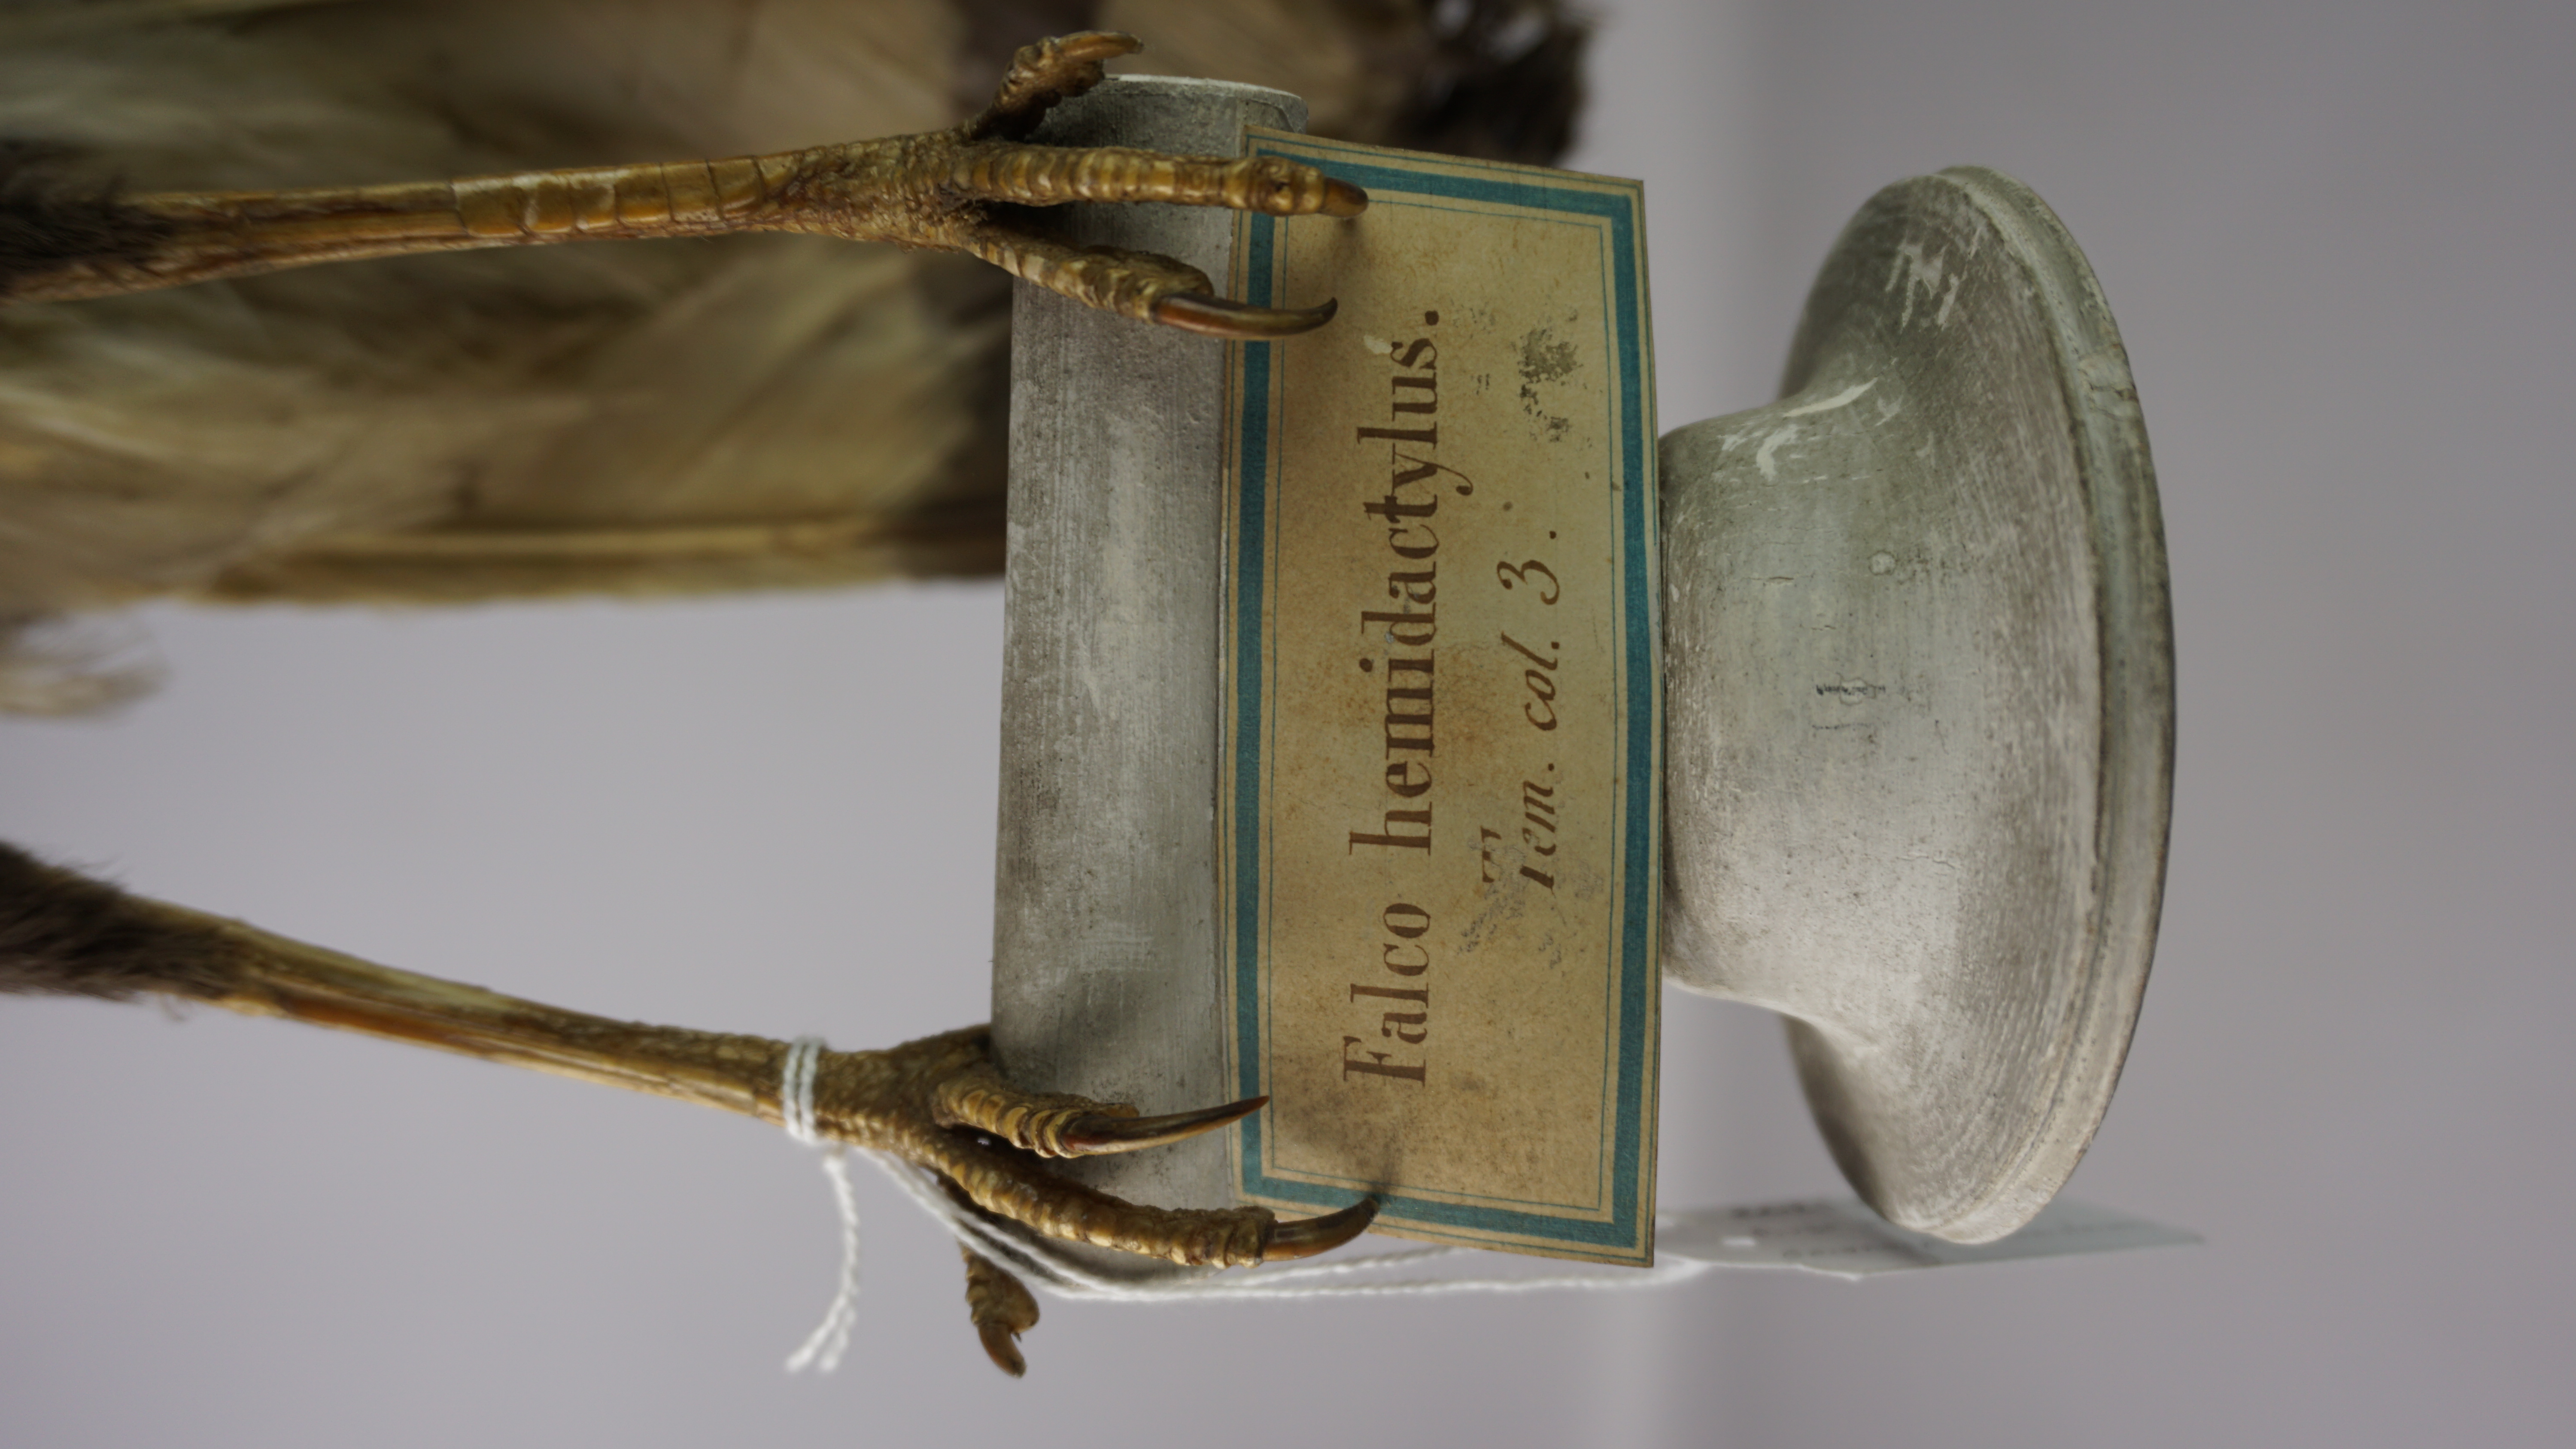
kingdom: Animalia
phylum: Chordata
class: Aves
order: Accipitriformes
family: Accipitridae
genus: Geranospiza
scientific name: Geranospiza caerulescens
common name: Crane hawk
